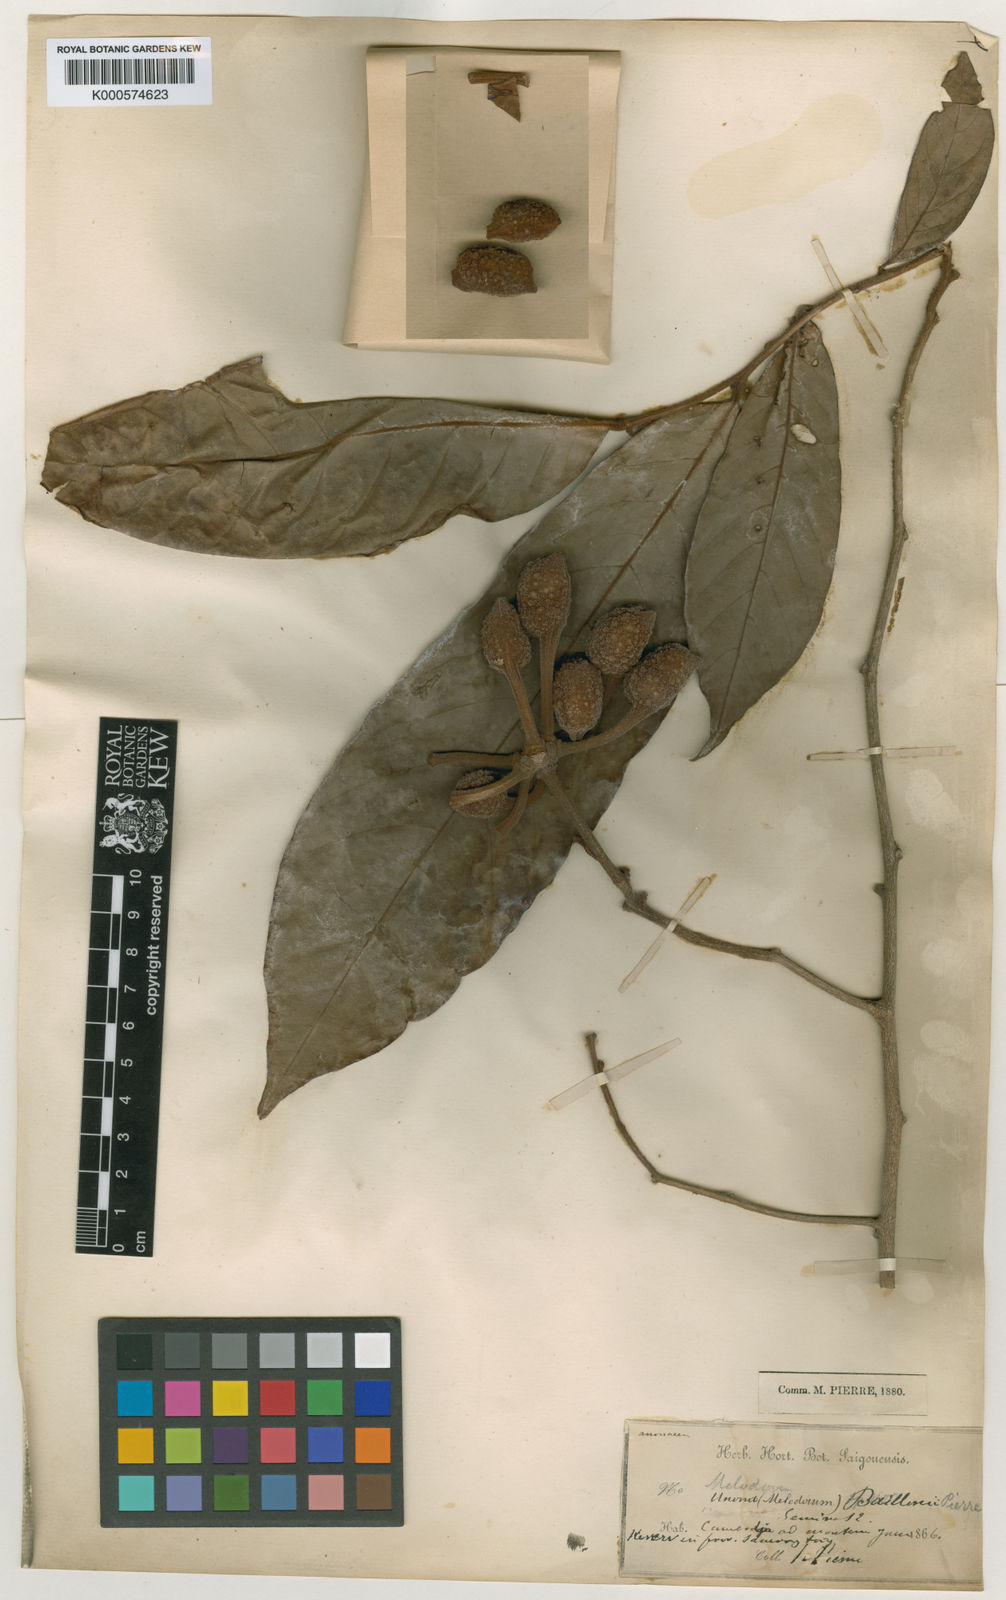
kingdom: Plantae
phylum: Tracheophyta
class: Magnoliopsida
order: Magnoliales
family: Annonaceae
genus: Fissistigma
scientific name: Fissistigma
